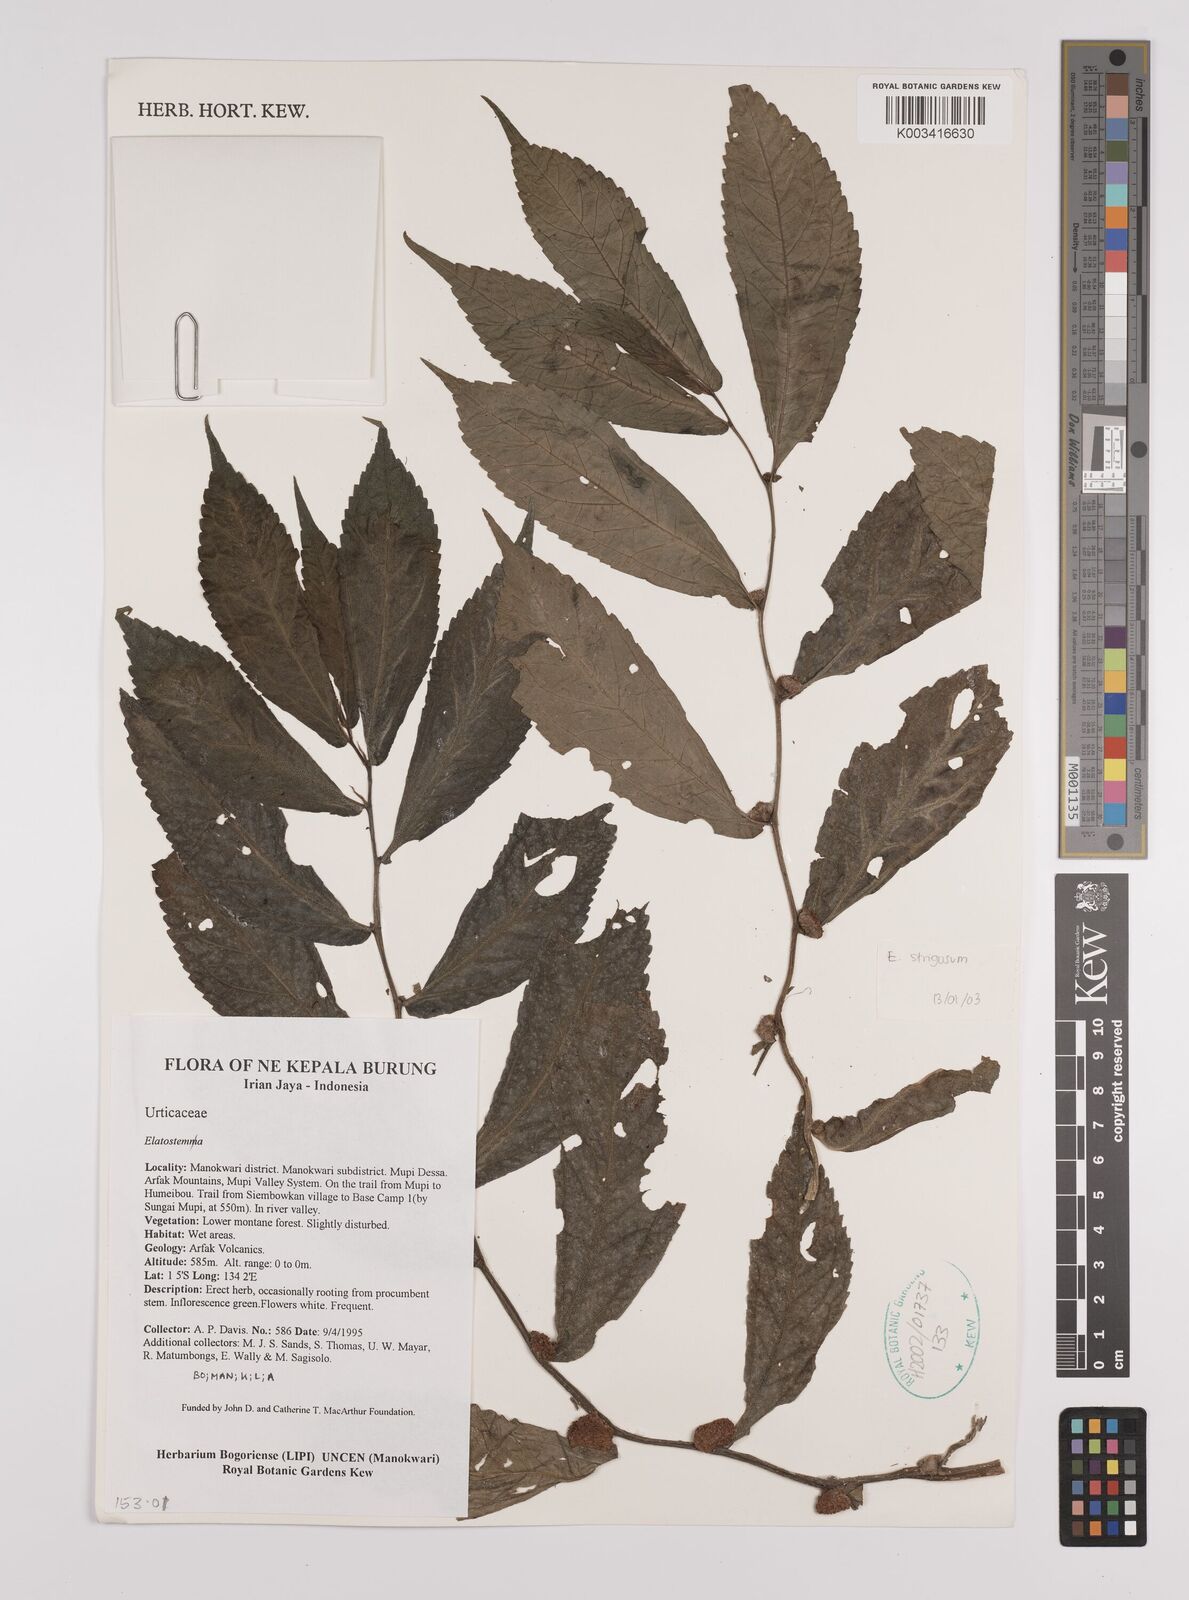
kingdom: Plantae
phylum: Tracheophyta
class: Magnoliopsida
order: Rosales
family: Urticaceae
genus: Elatostema
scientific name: Elatostema
